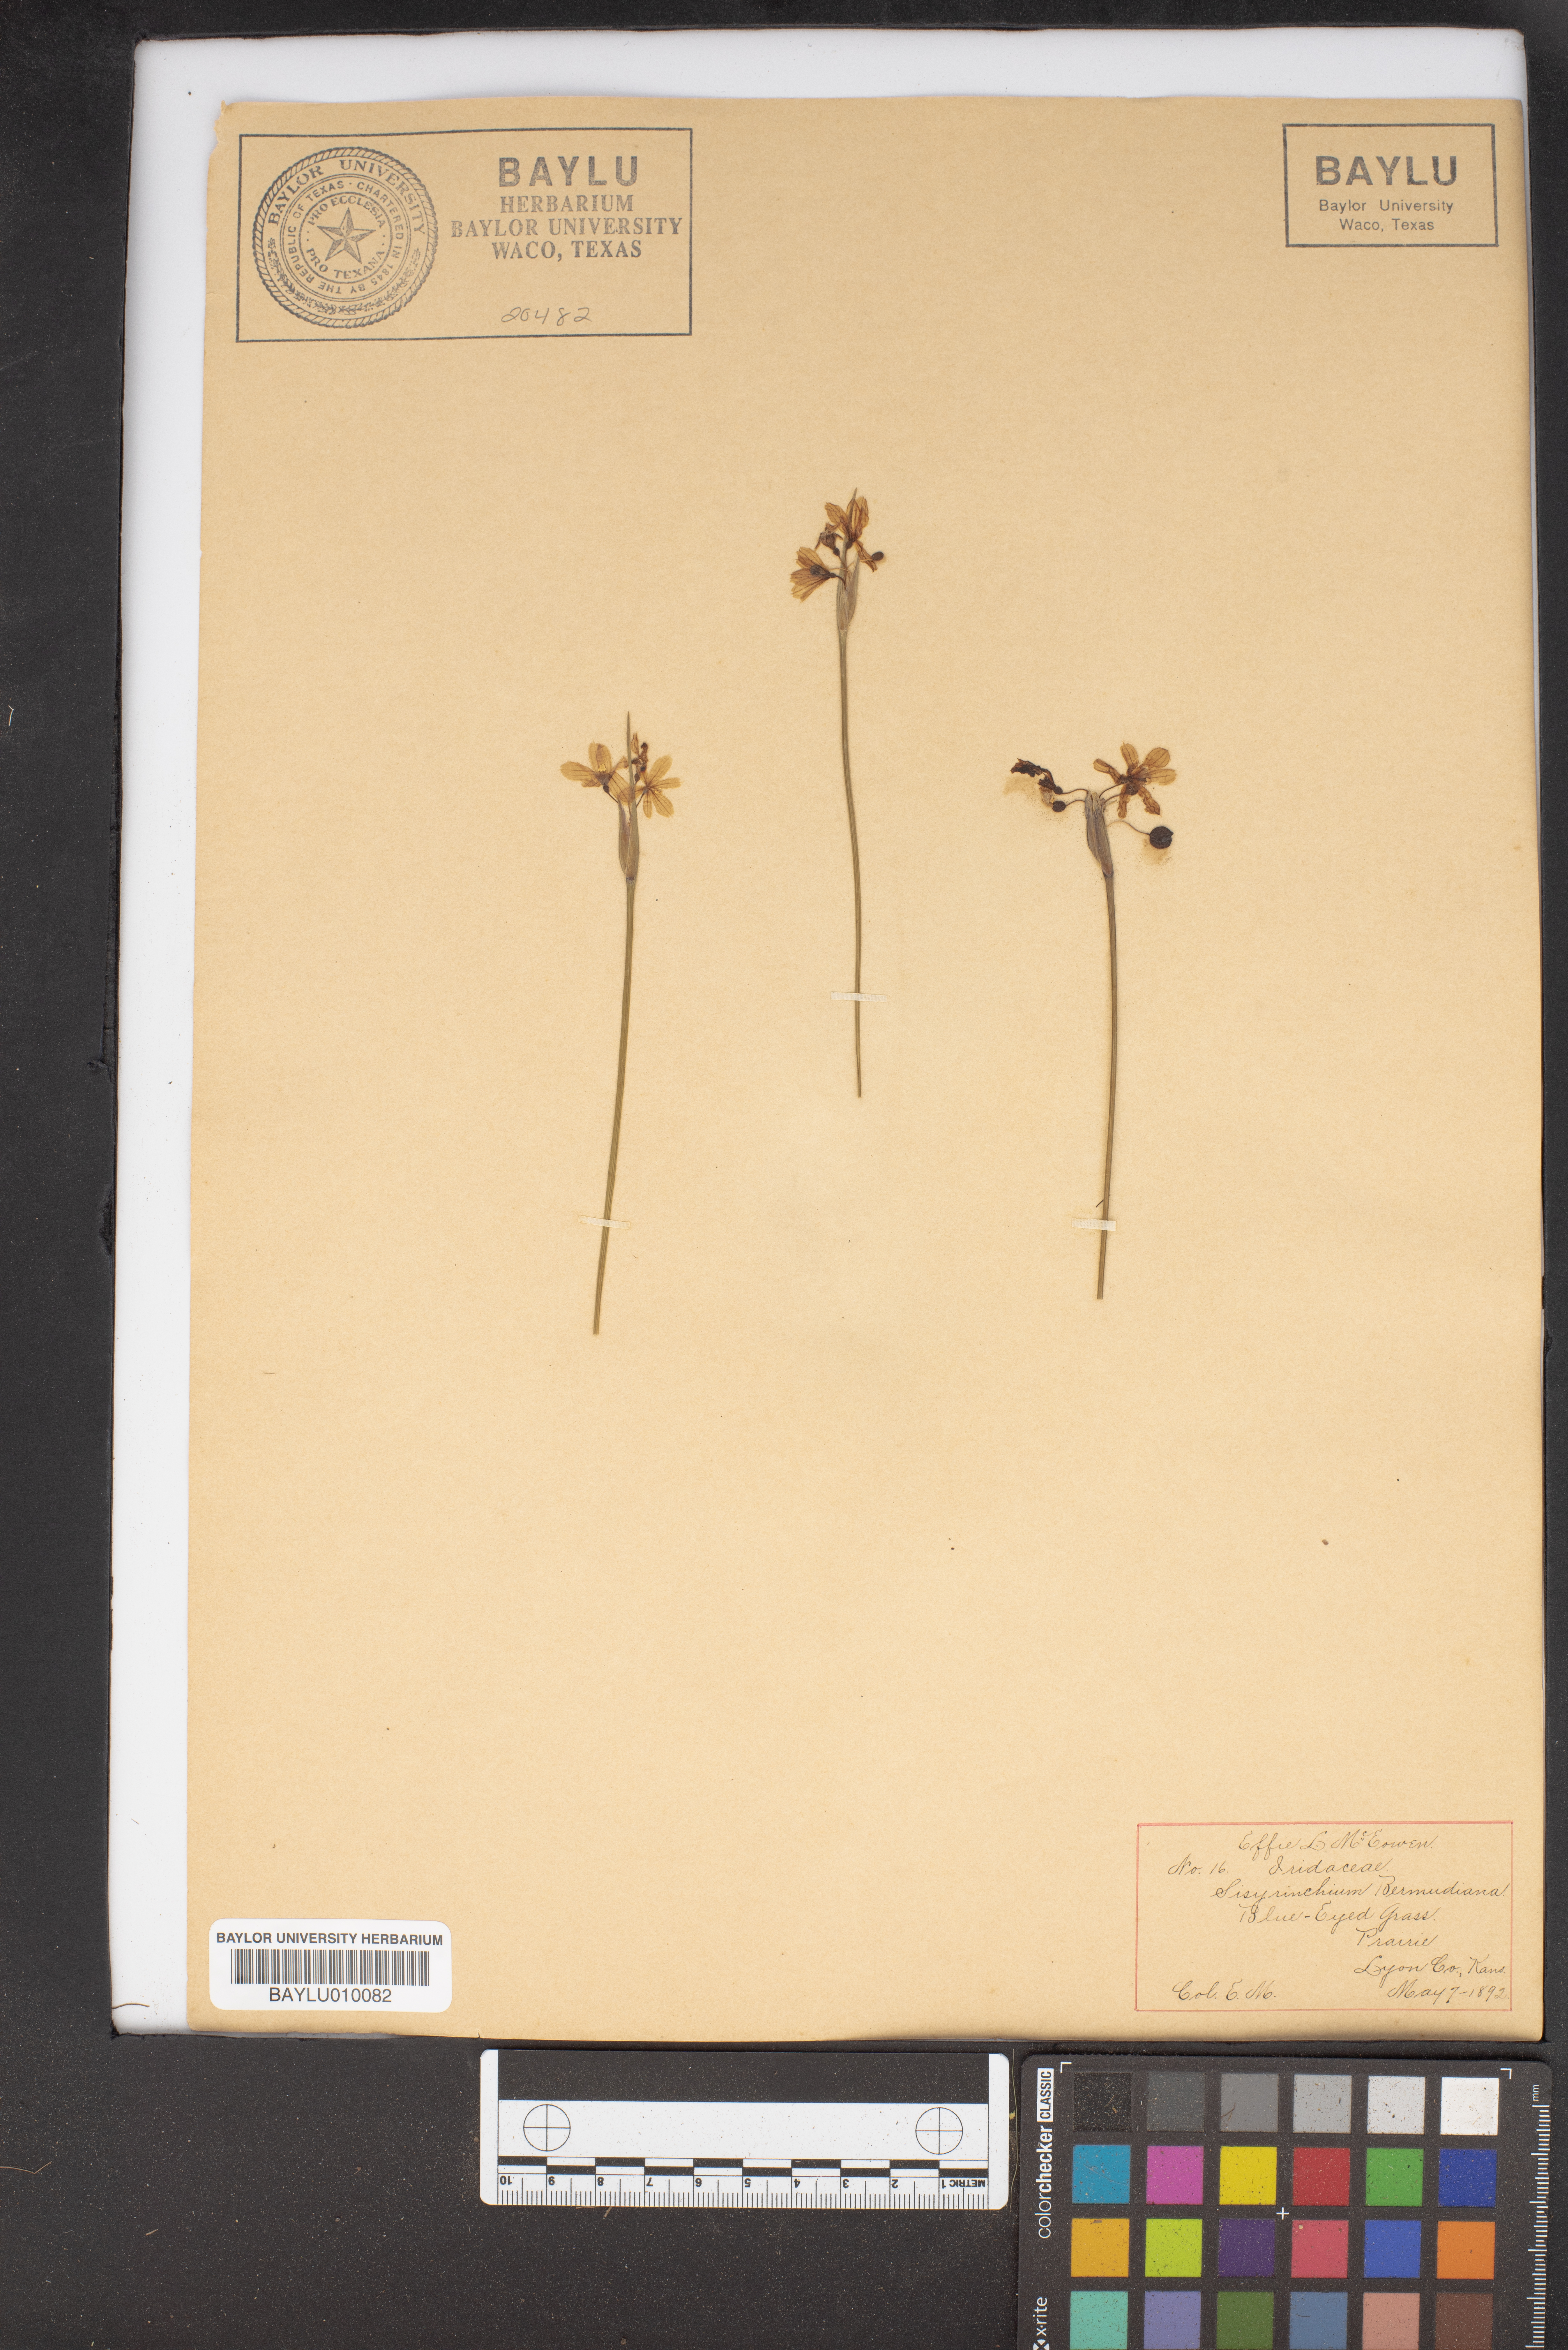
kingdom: Plantae
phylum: Tracheophyta
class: Liliopsida
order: Asparagales
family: Iridaceae
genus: Sisyrinchium
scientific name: Sisyrinchium bermudiana
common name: Blue-eyed-grass
